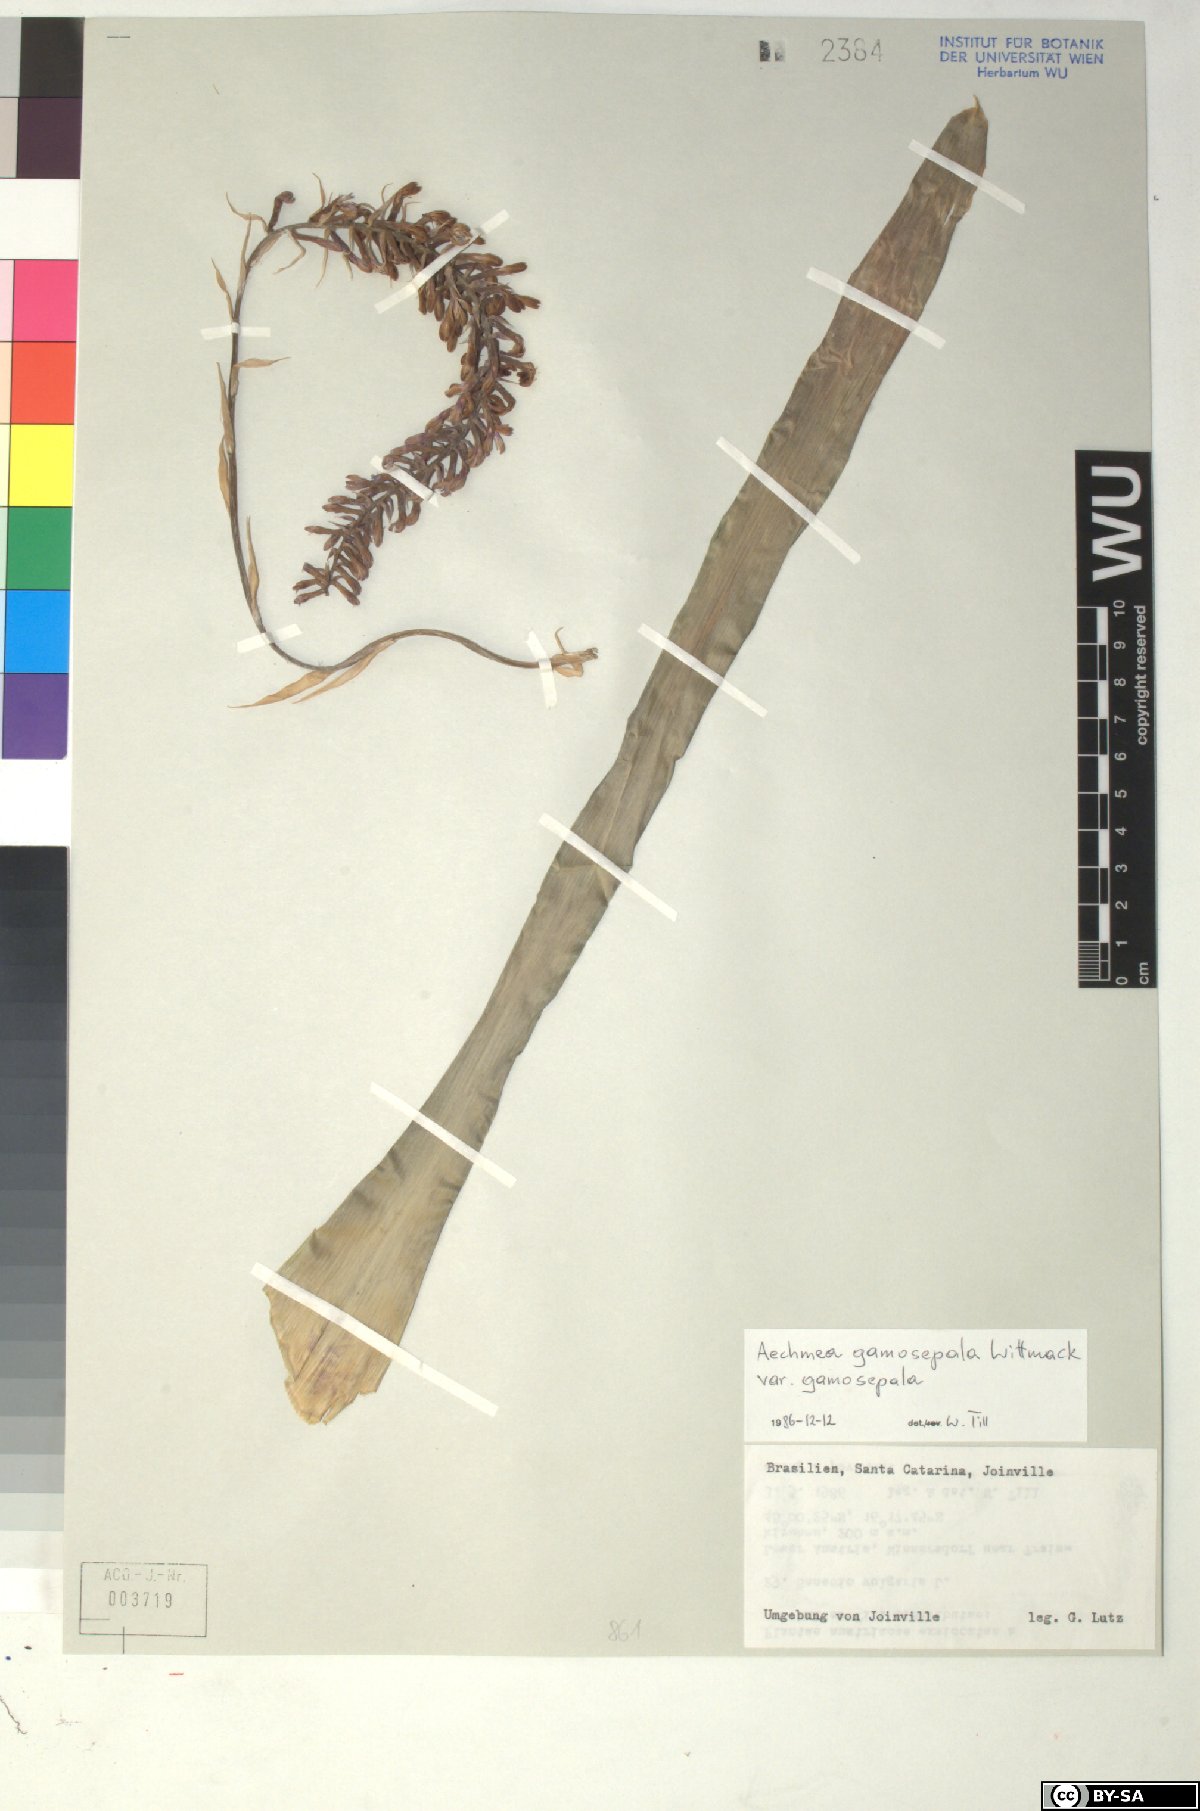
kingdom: Plantae
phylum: Tracheophyta
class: Liliopsida
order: Poales
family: Bromeliaceae
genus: Aechmea
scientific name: Aechmea
